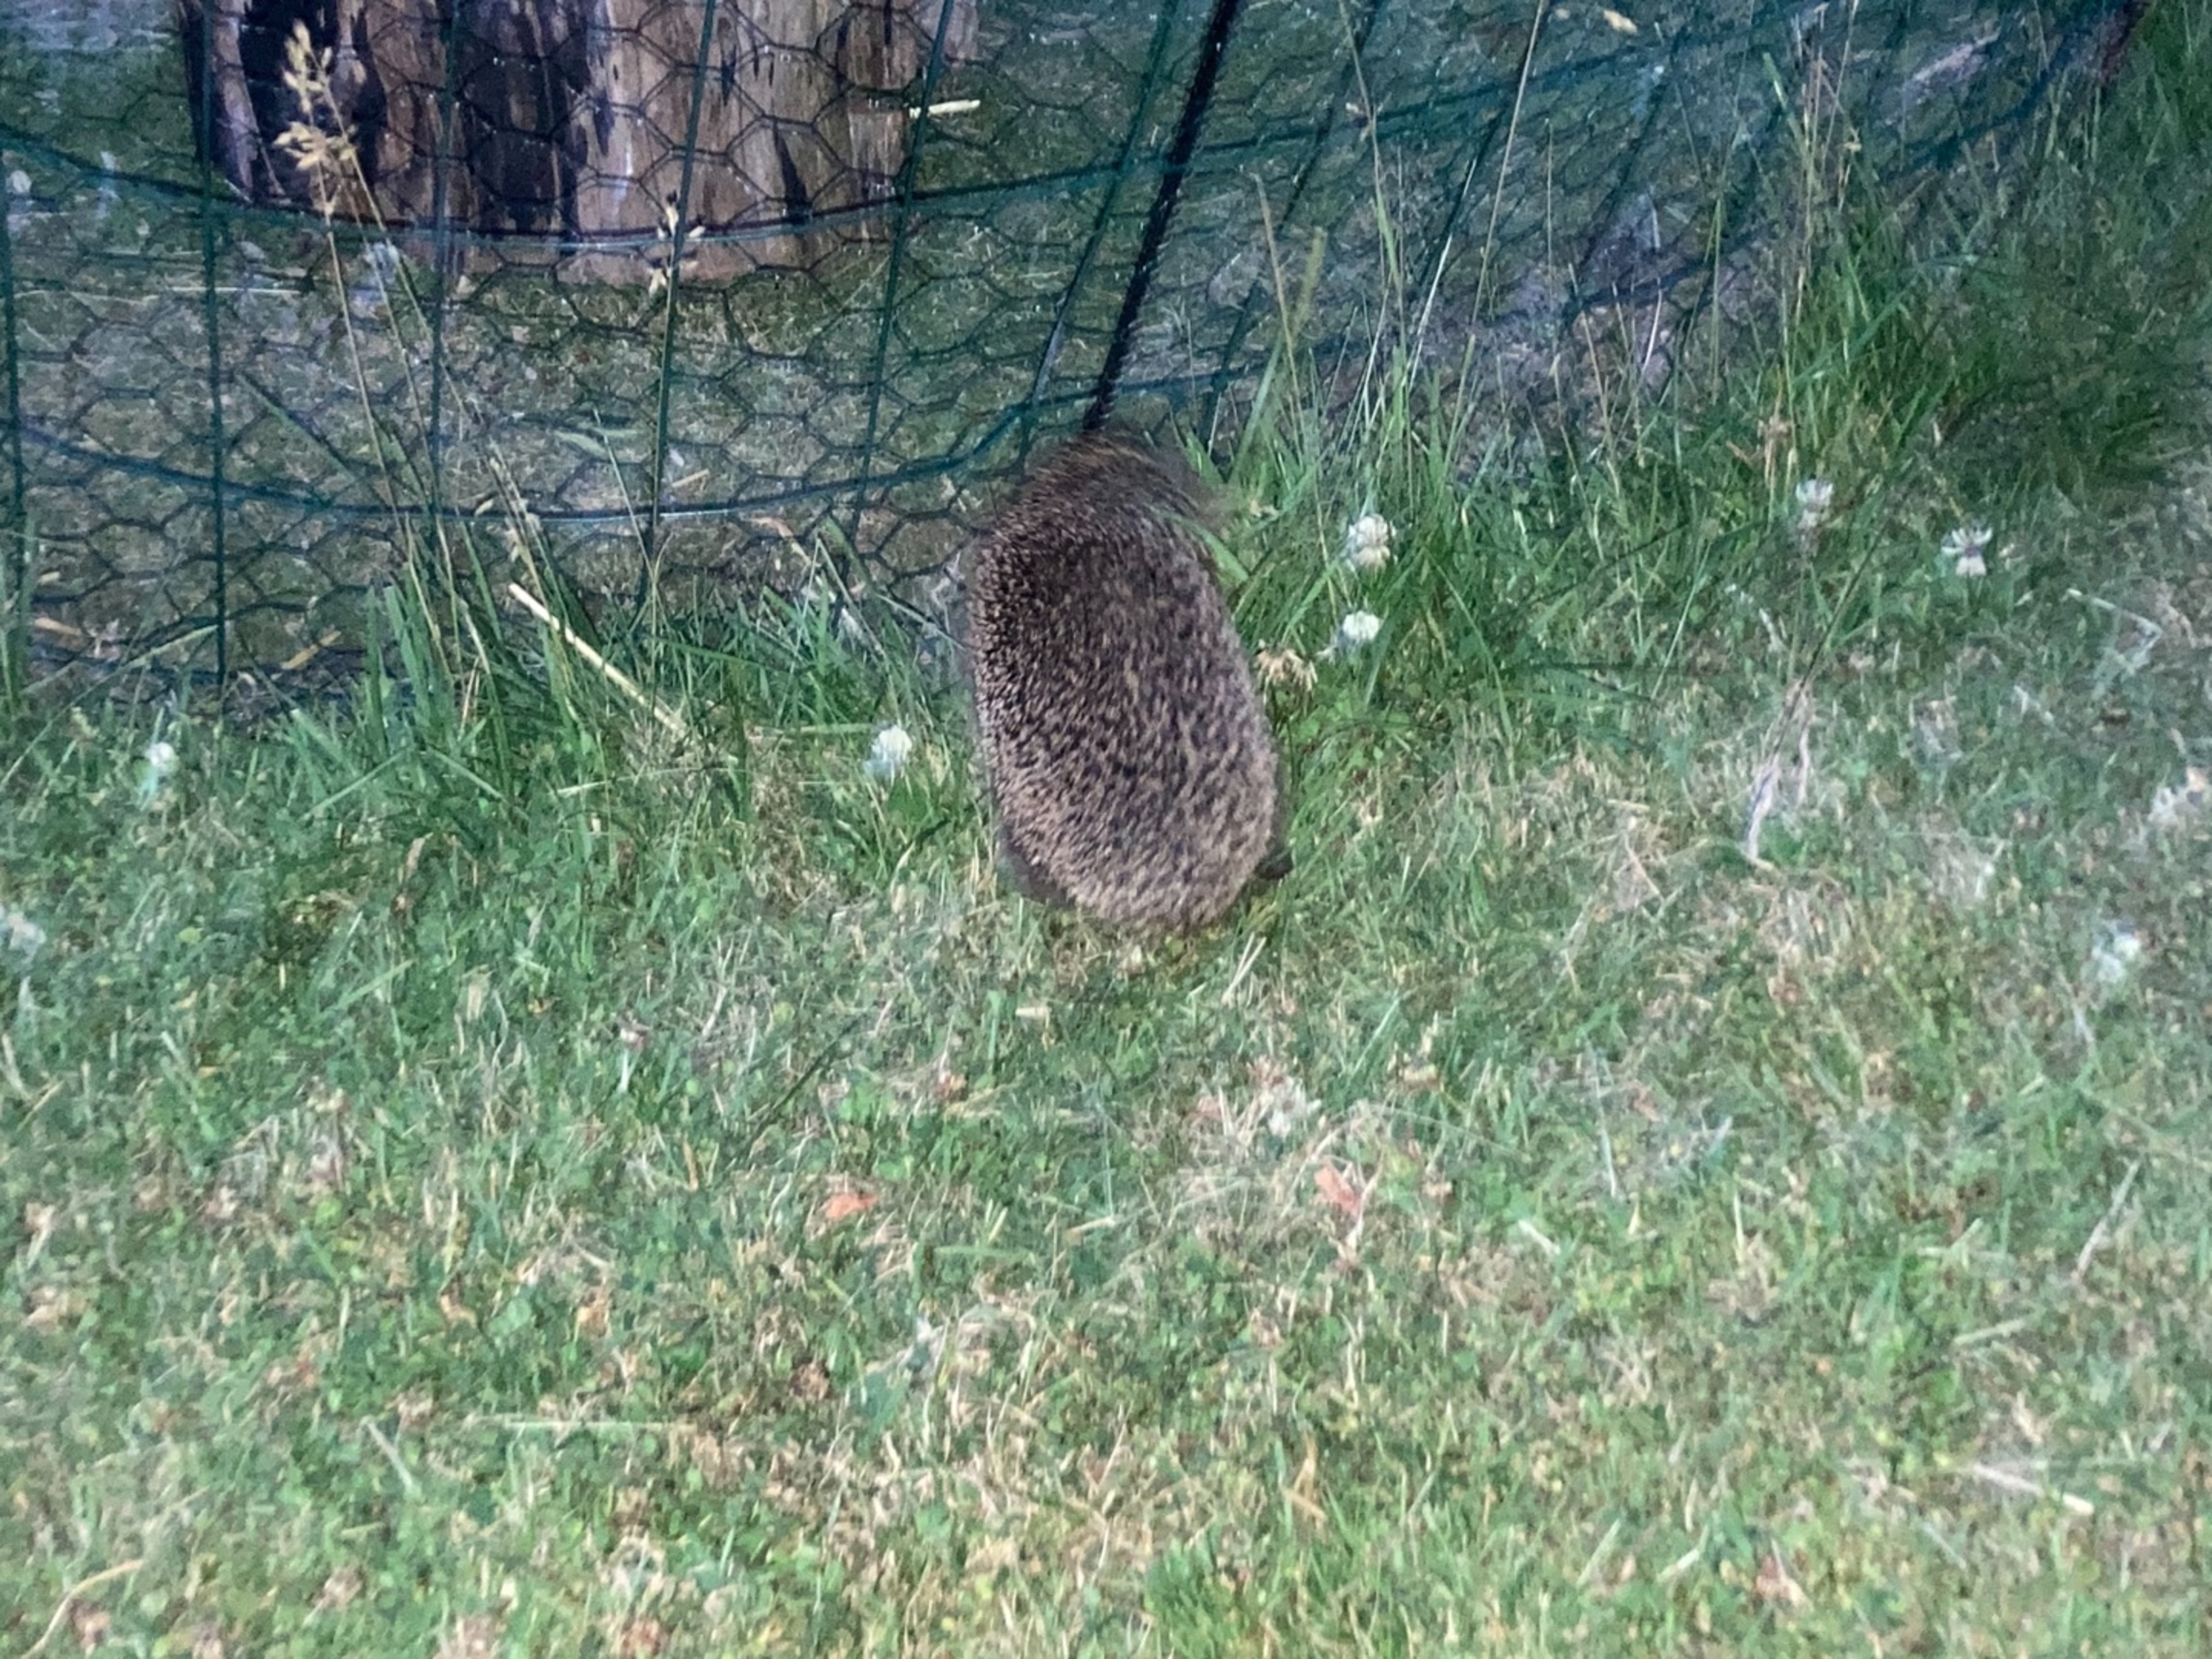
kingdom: Animalia
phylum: Chordata
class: Mammalia
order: Erinaceomorpha
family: Erinaceidae
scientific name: Erinaceidae
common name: Pindsvin
